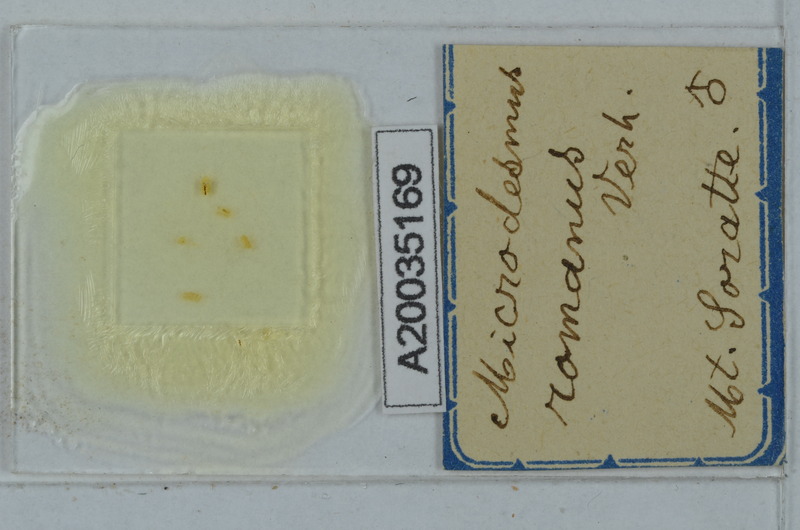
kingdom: Animalia
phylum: Arthropoda
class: Diplopoda
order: Polydesmida
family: Paradoxosomatidae
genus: Metonomastus
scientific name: Metonomastus romanus
